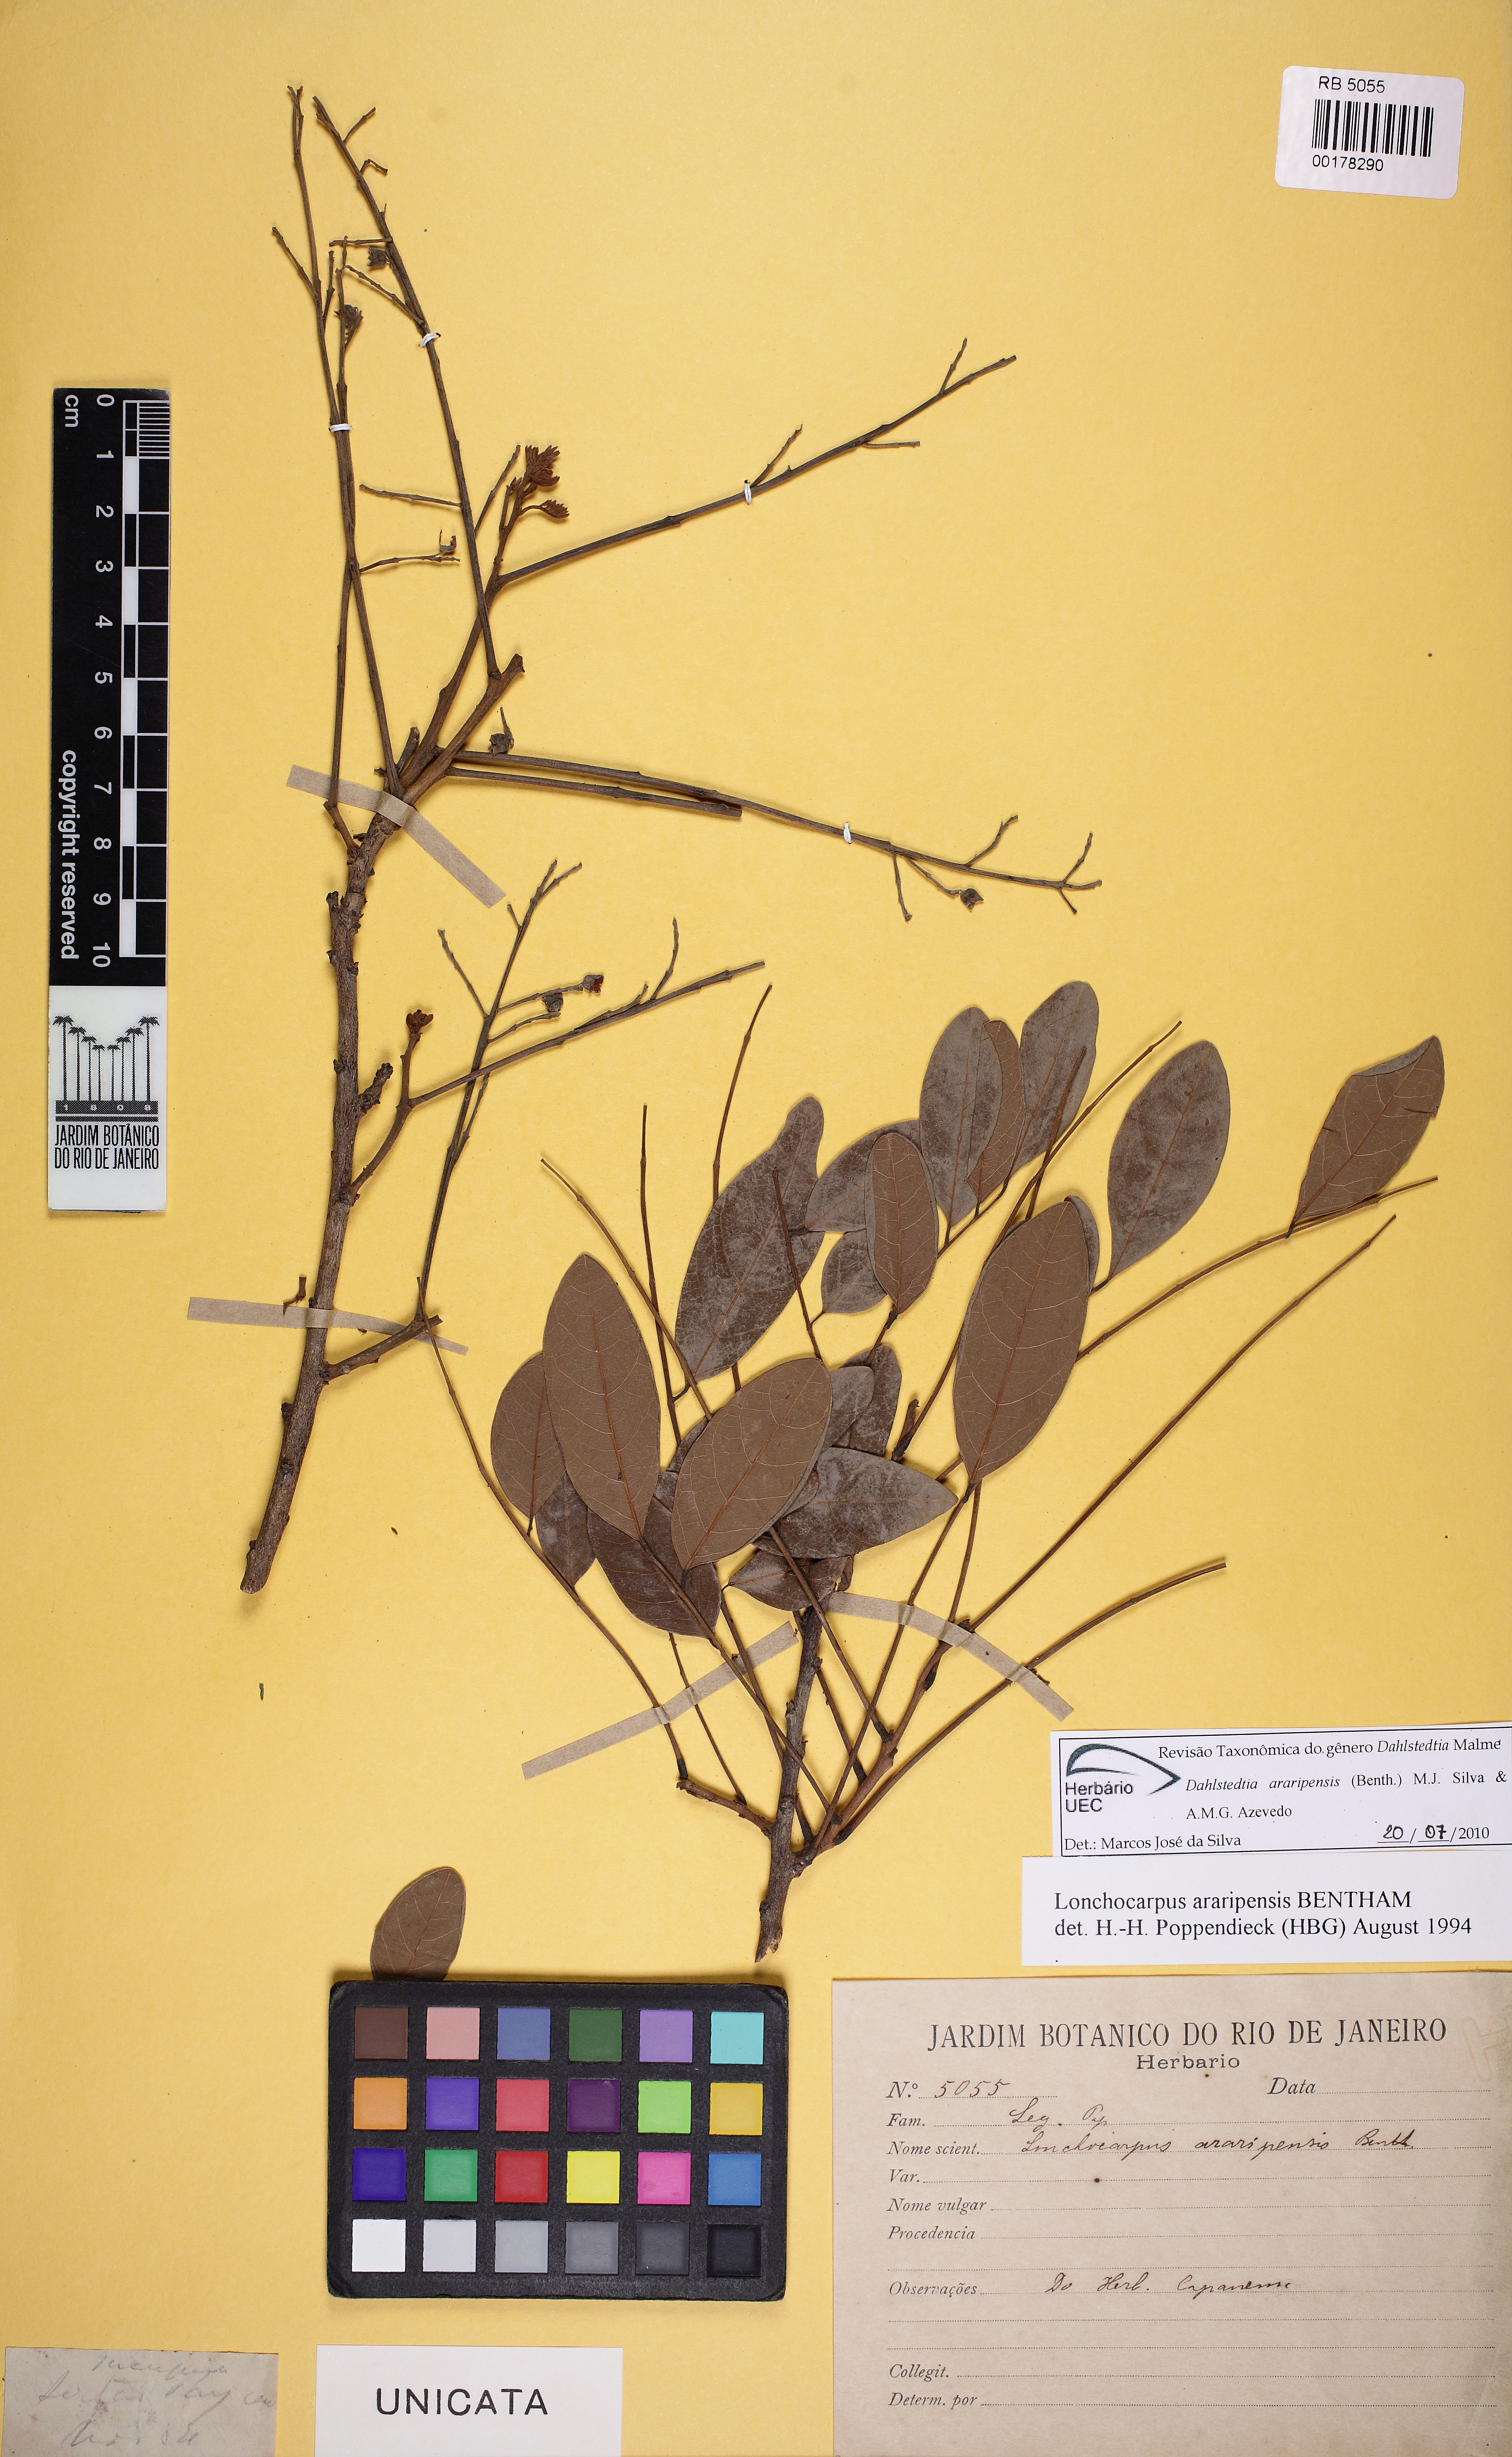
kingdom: Plantae
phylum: Tracheophyta
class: Magnoliopsida
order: Fabales
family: Fabaceae
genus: Dahlstedtia
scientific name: Dahlstedtia araripensis
